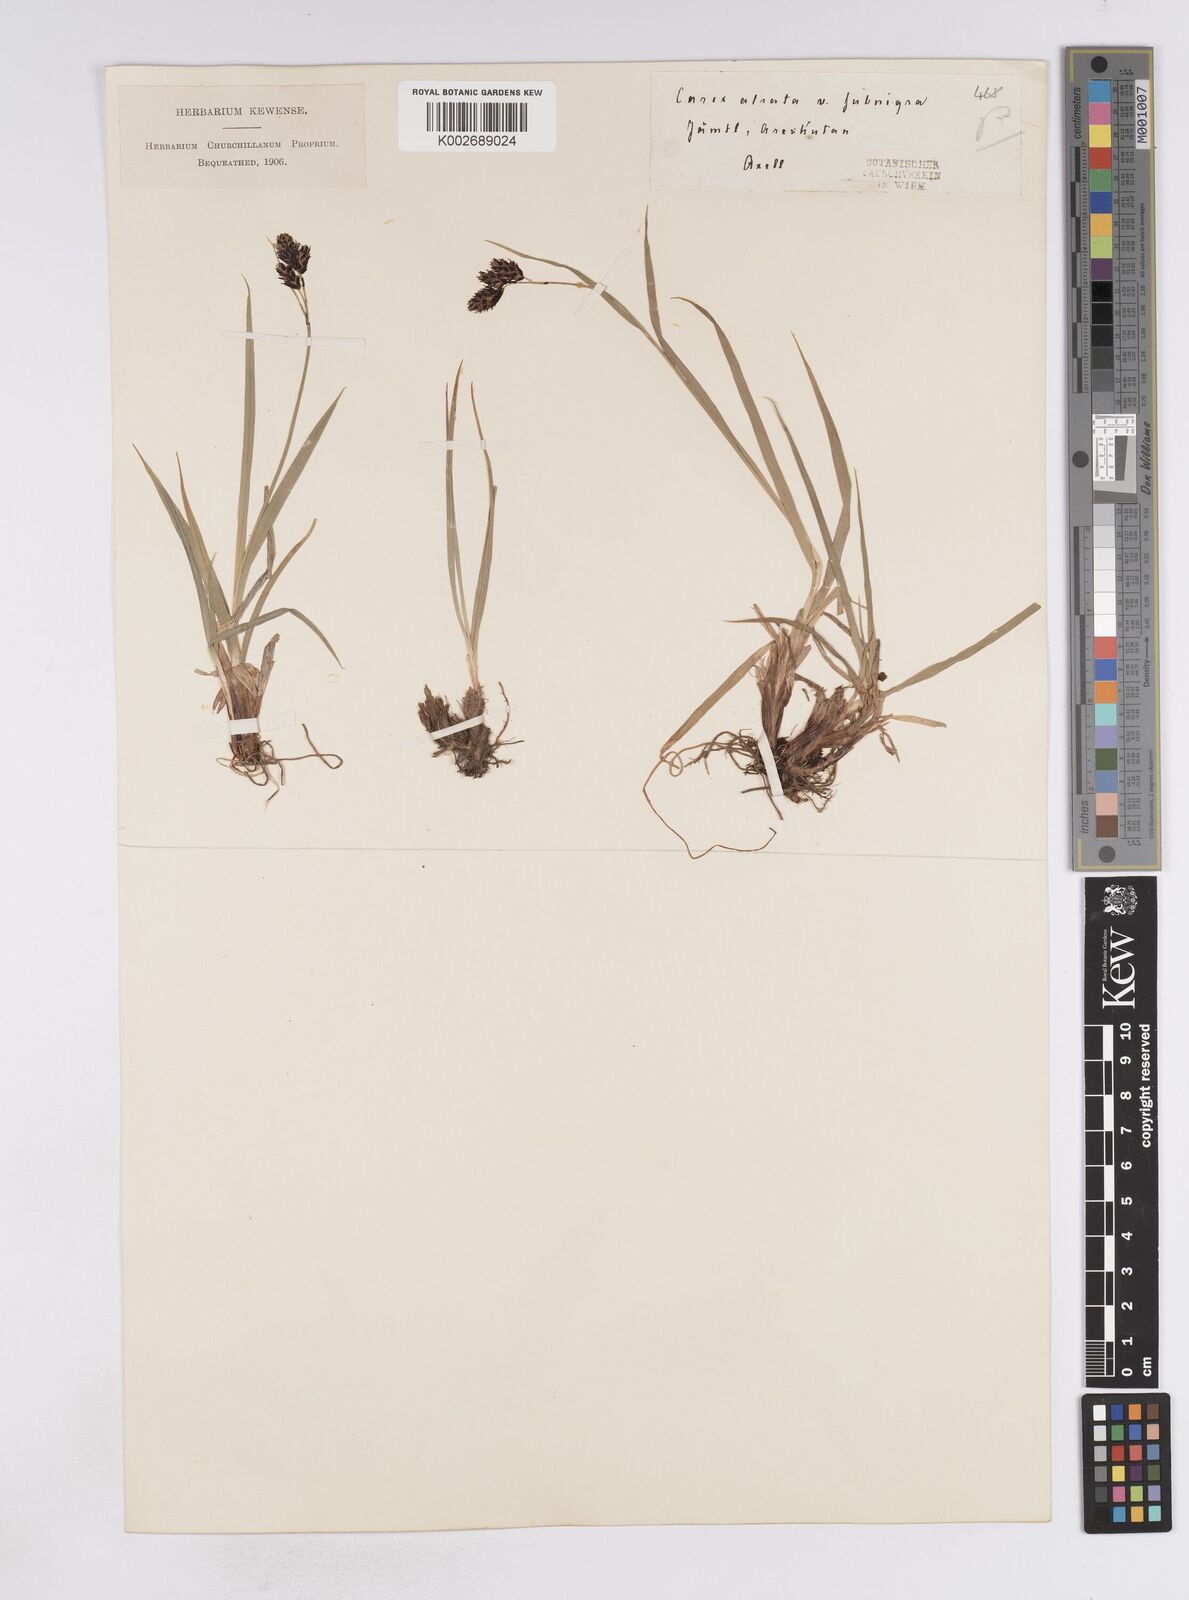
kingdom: Plantae
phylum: Tracheophyta
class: Liliopsida
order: Poales
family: Cyperaceae
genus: Carex
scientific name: Carex atrata
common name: Black alpine sedge
